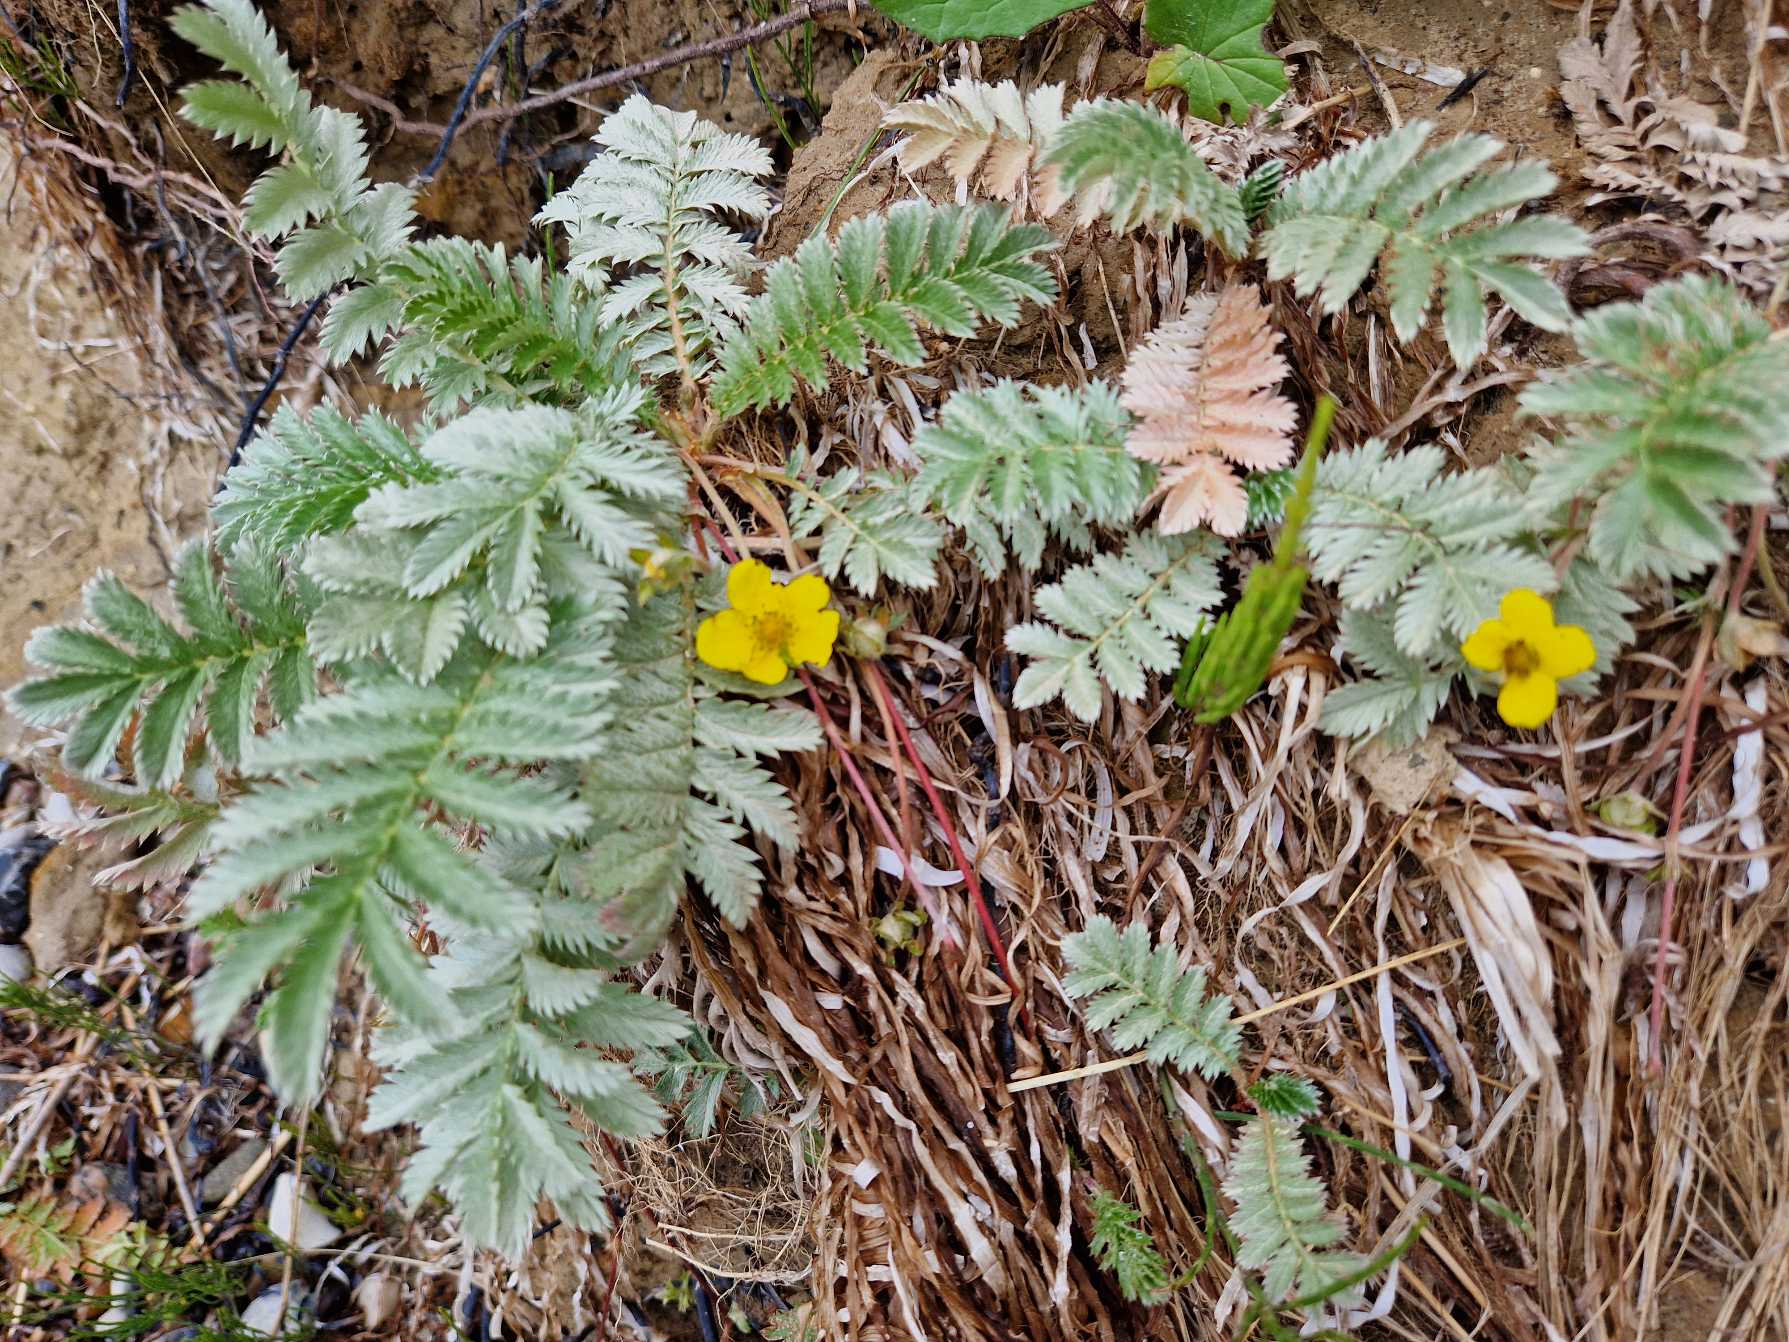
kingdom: Plantae
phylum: Tracheophyta
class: Magnoliopsida
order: Rosales
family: Rosaceae
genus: Argentina
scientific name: Argentina anserina
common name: Gåsepotentil
